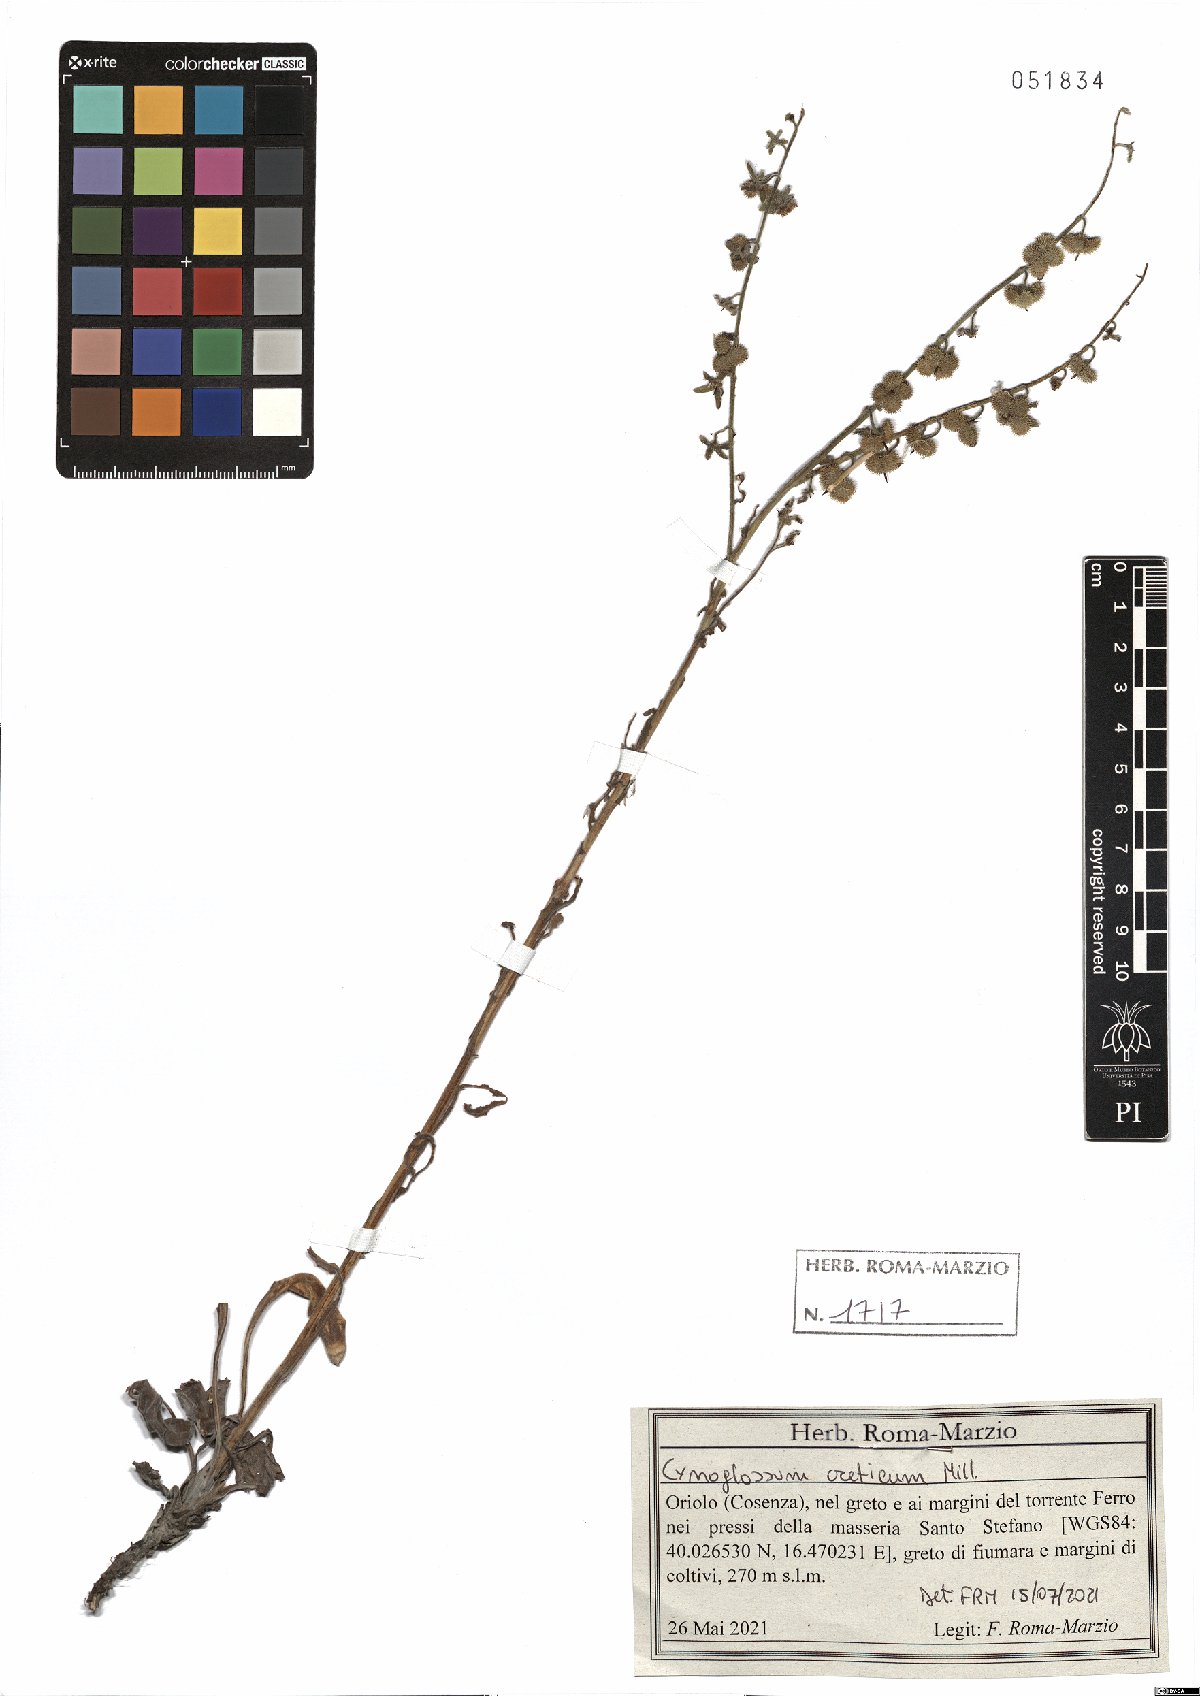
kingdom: Plantae
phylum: Tracheophyta
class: Magnoliopsida
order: Boraginales
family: Boraginaceae
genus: Cynoglossum
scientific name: Cynoglossum creticum
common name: Blue hound's tongue
